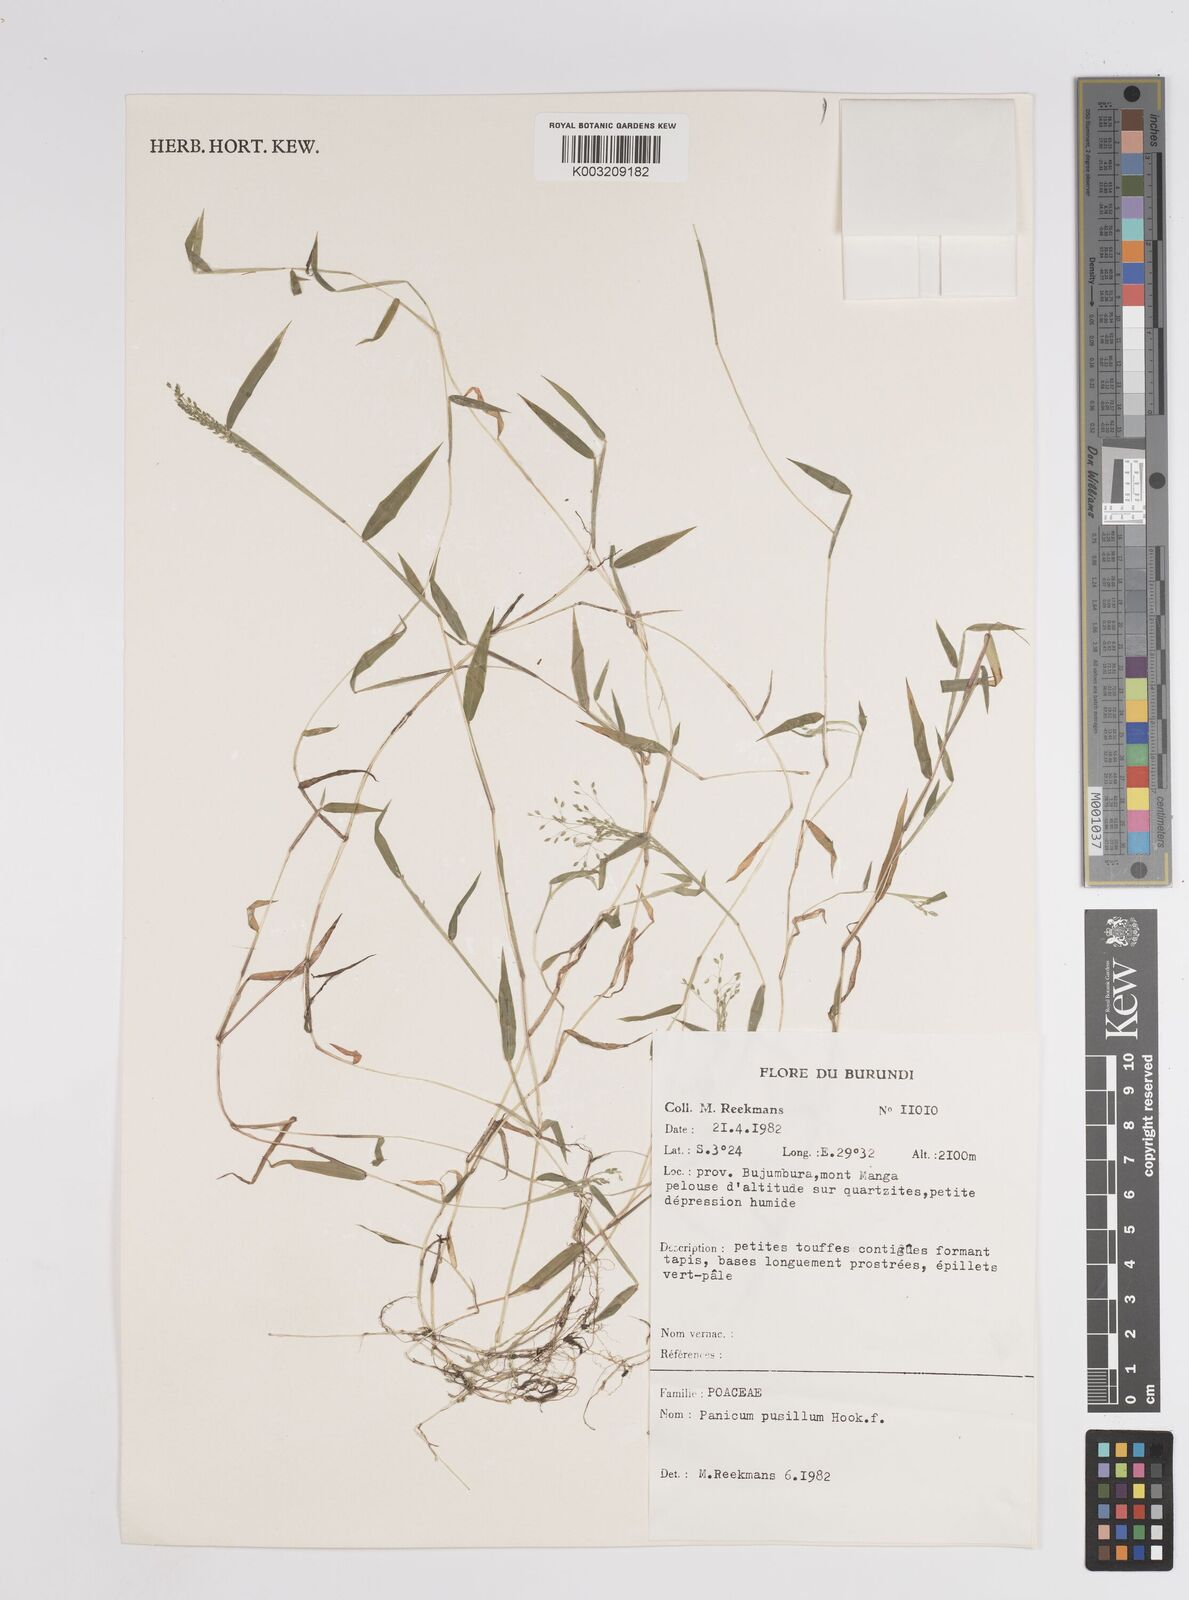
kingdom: Plantae
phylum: Tracheophyta
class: Liliopsida
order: Poales
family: Poaceae
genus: Panicum
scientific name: Panicum
